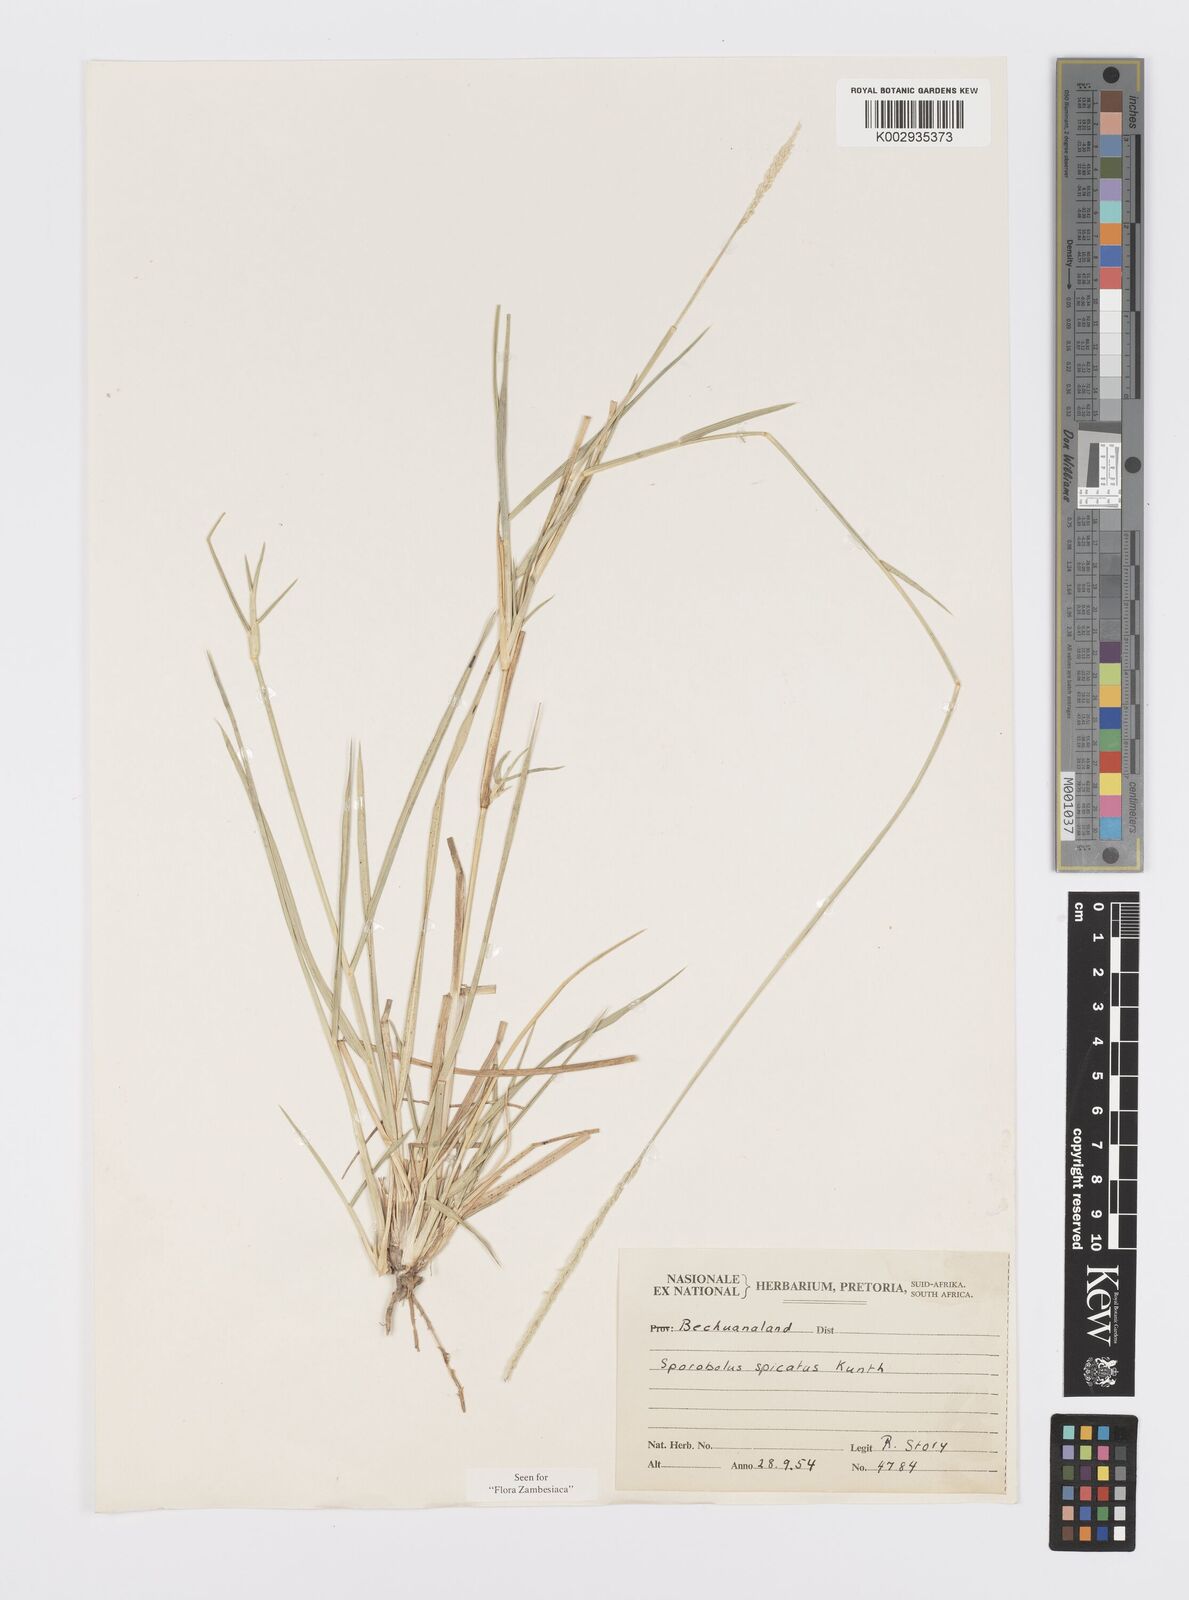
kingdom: Plantae
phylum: Tracheophyta
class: Liliopsida
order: Poales
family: Poaceae
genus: Sporobolus
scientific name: Sporobolus spicatus
